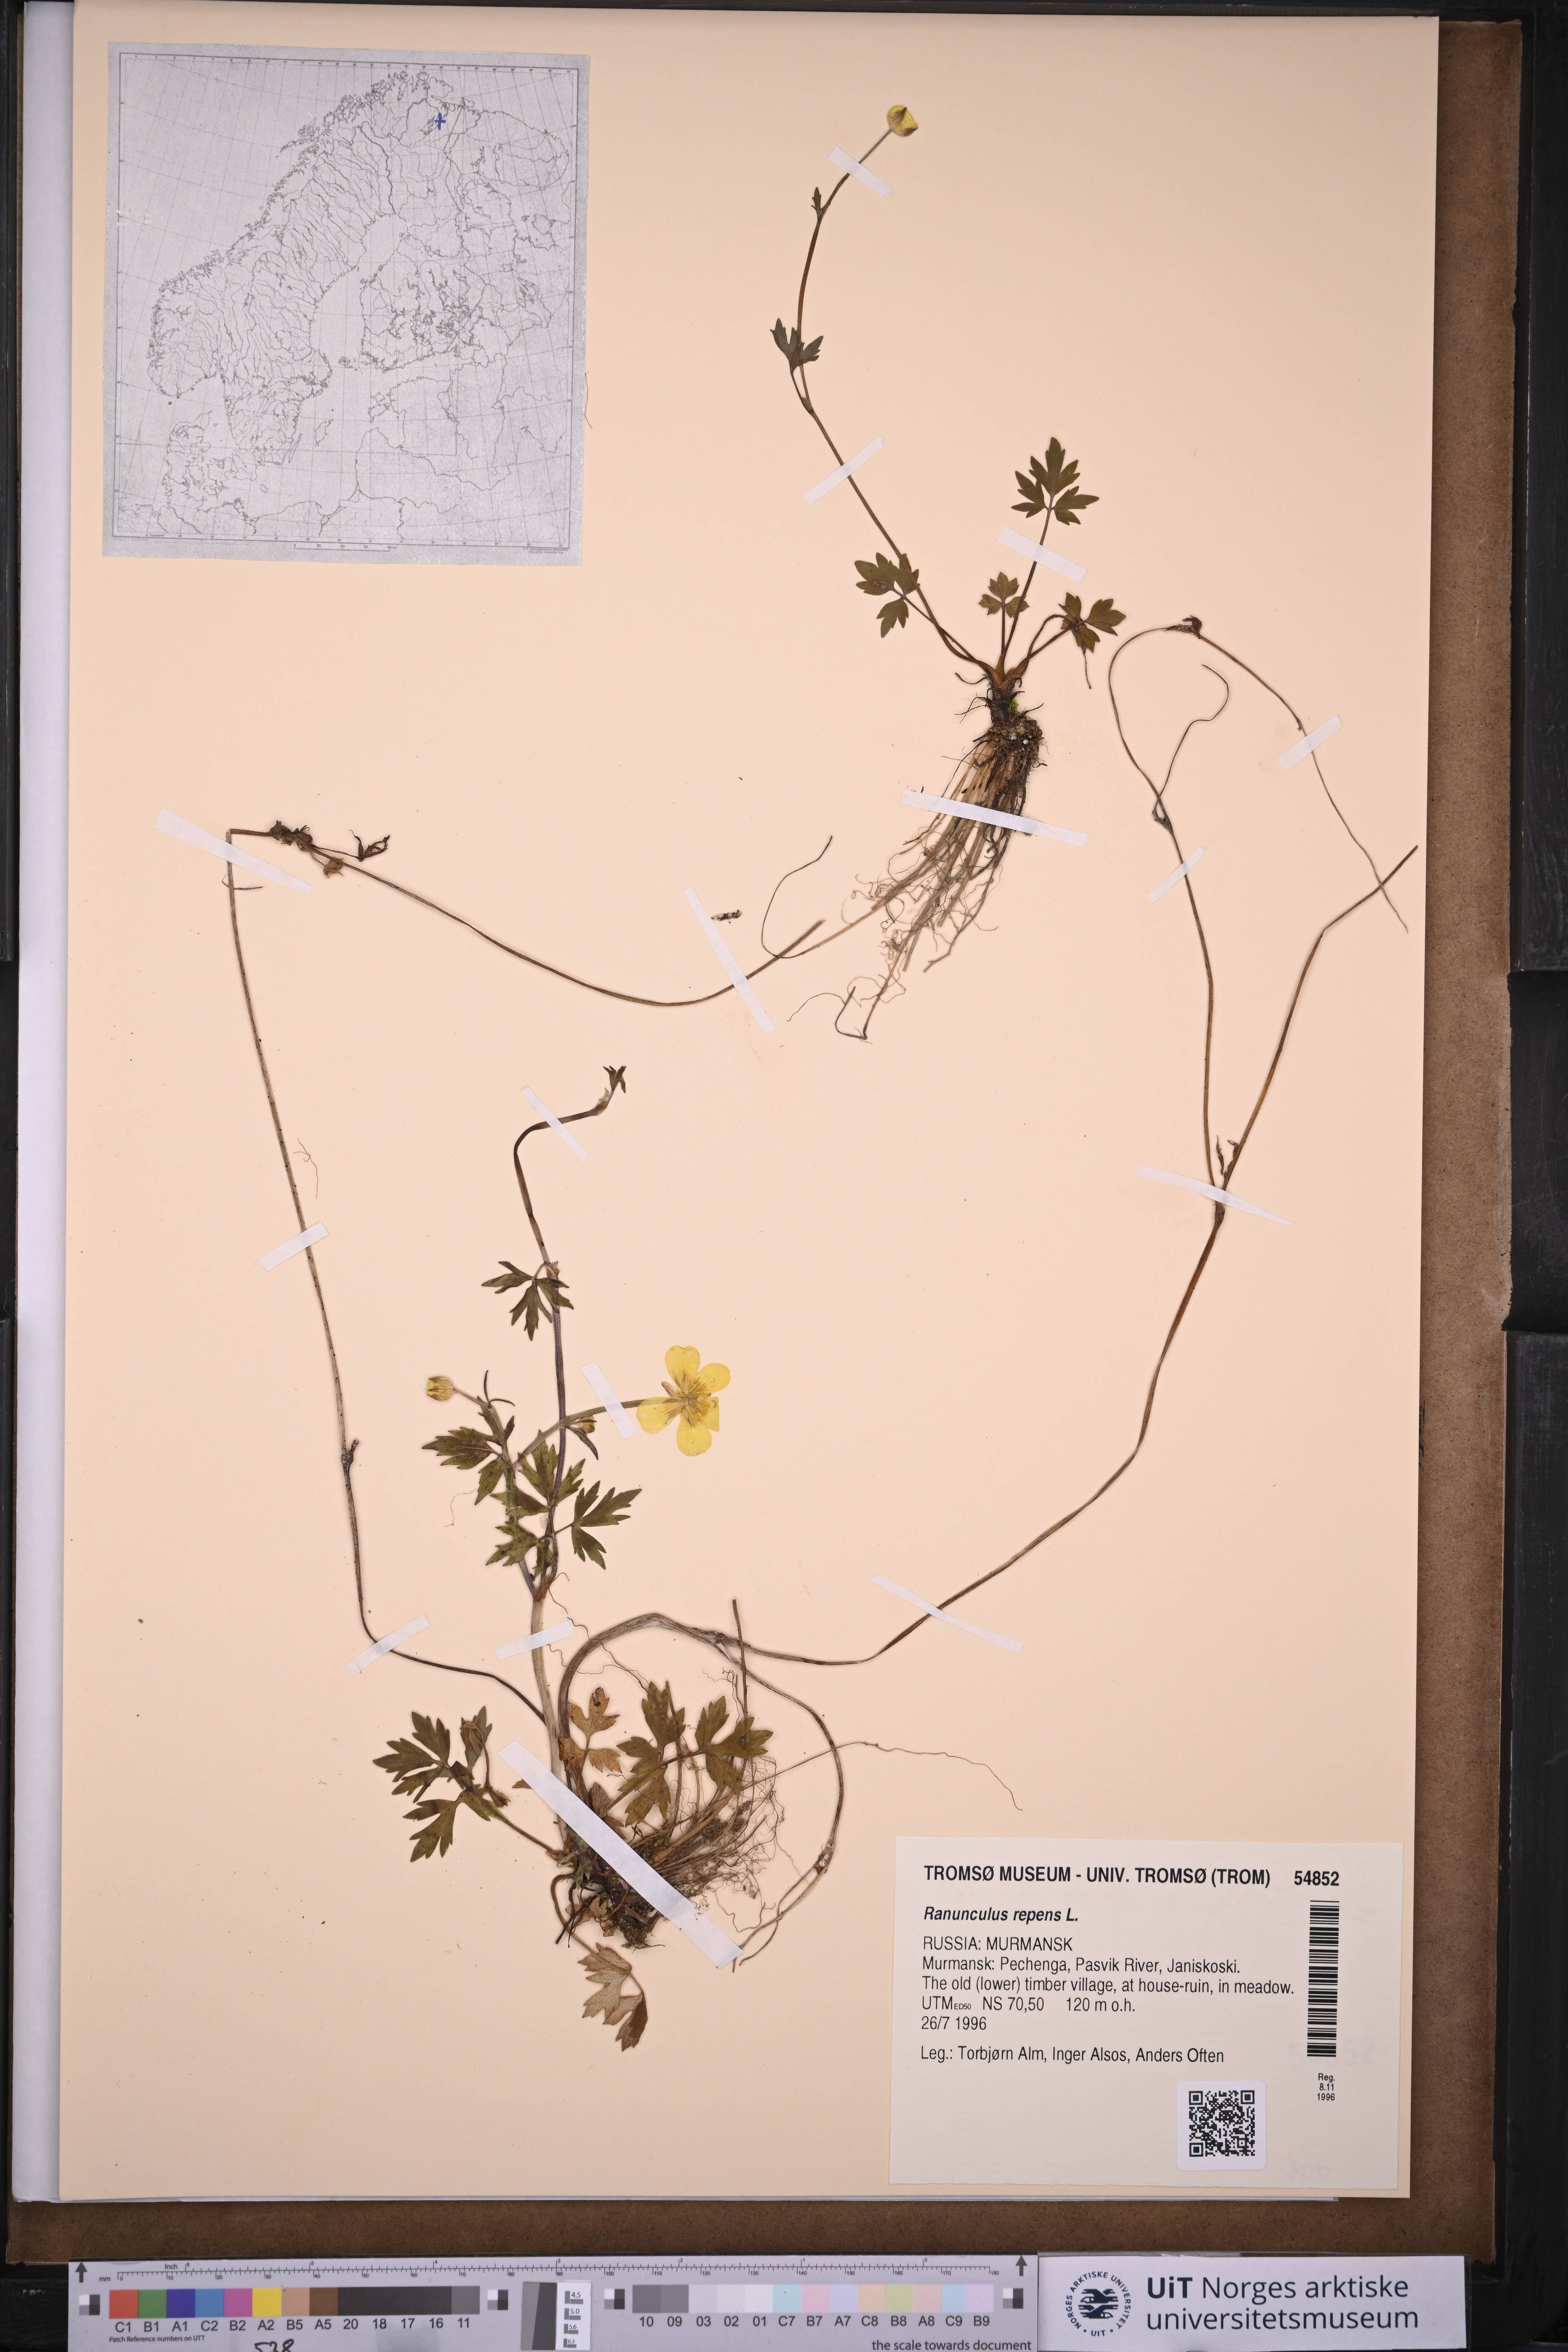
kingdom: Plantae
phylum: Tracheophyta
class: Magnoliopsida
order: Ranunculales
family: Ranunculaceae
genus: Ranunculus
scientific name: Ranunculus repens
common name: Creeping buttercup
